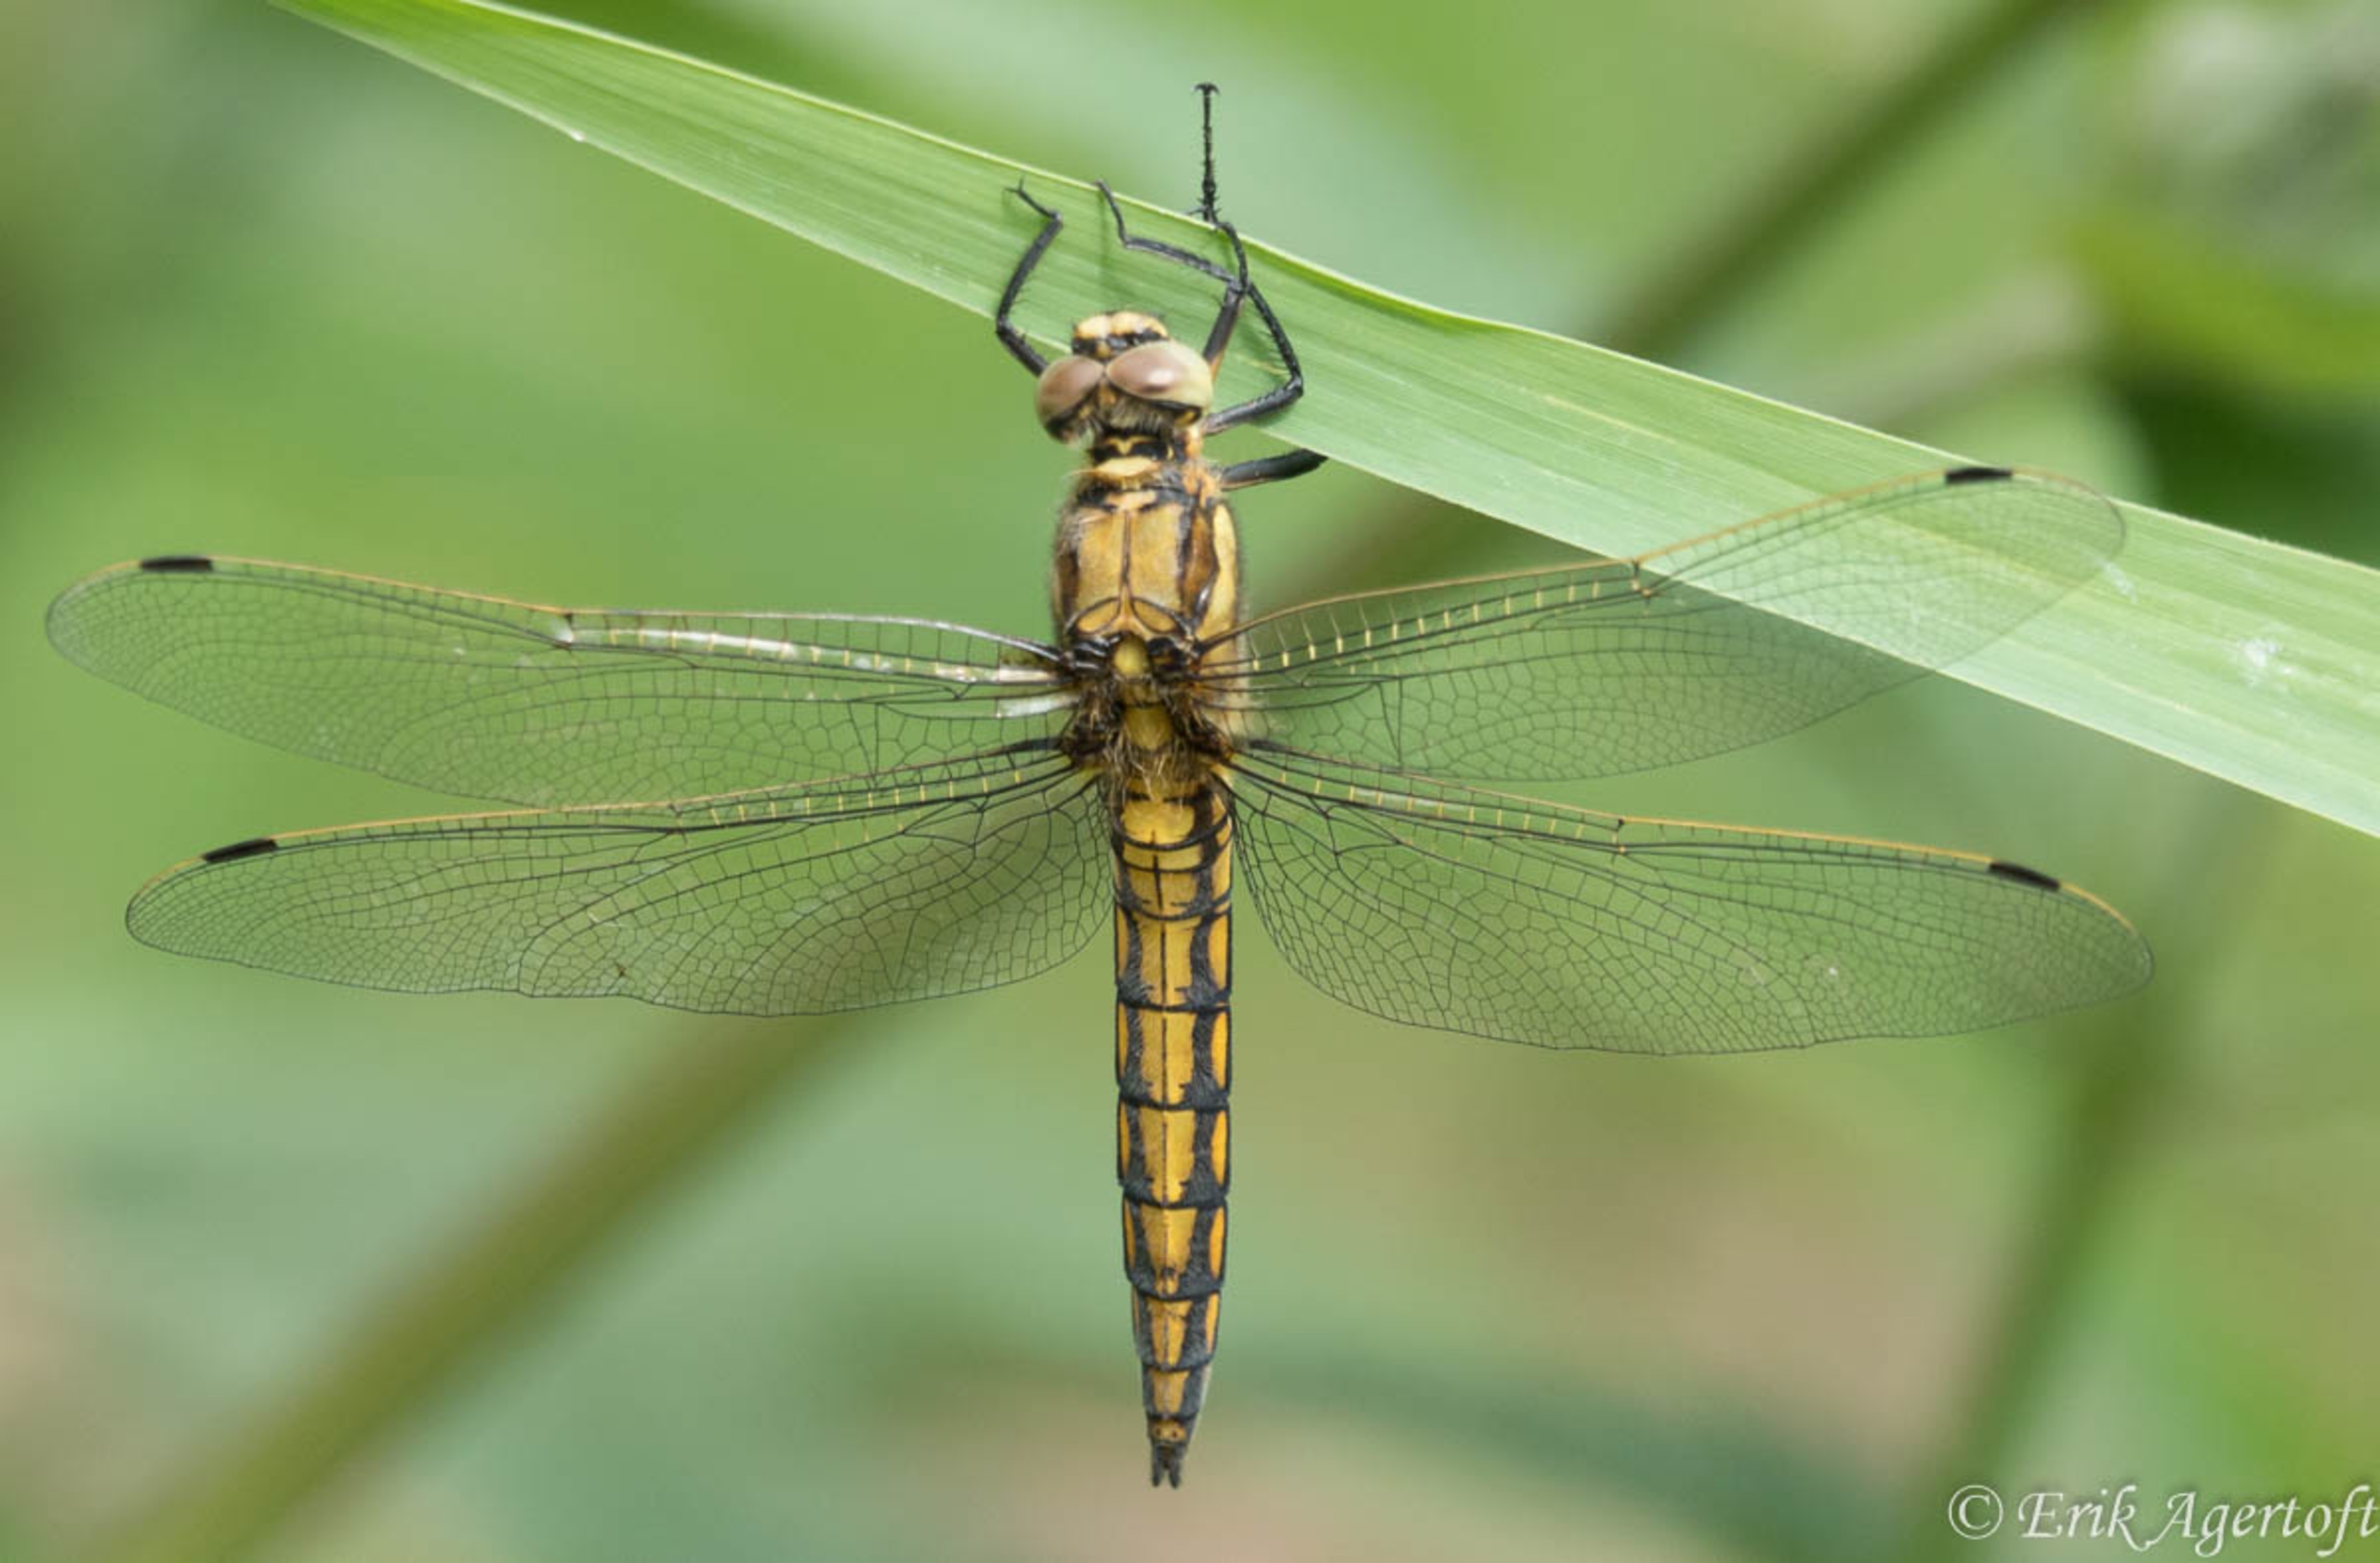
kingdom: Animalia
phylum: Arthropoda
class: Insecta
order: Odonata
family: Libellulidae
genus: Orthetrum
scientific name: Orthetrum cancellatum
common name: Stor blåpil
